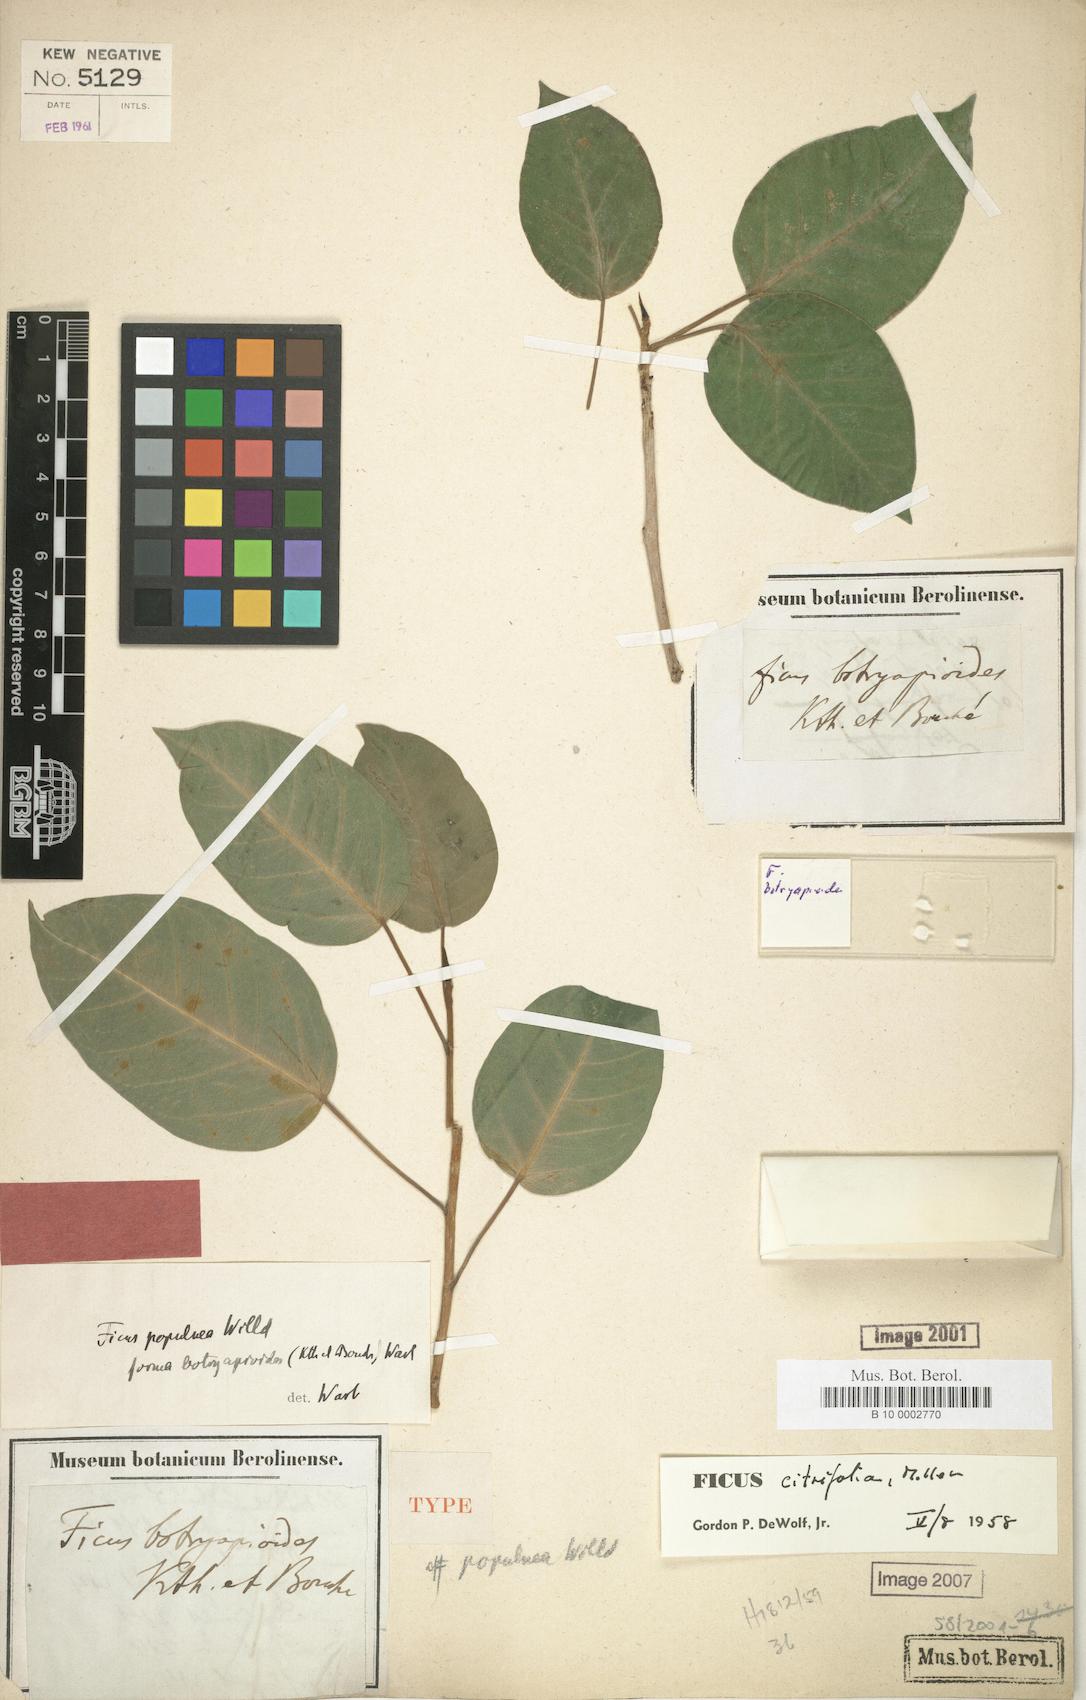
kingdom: Plantae
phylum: Tracheophyta
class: Magnoliopsida
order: Rosales
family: Moraceae
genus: Ficus
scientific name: Ficus citrifolia
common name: Strangler fig
